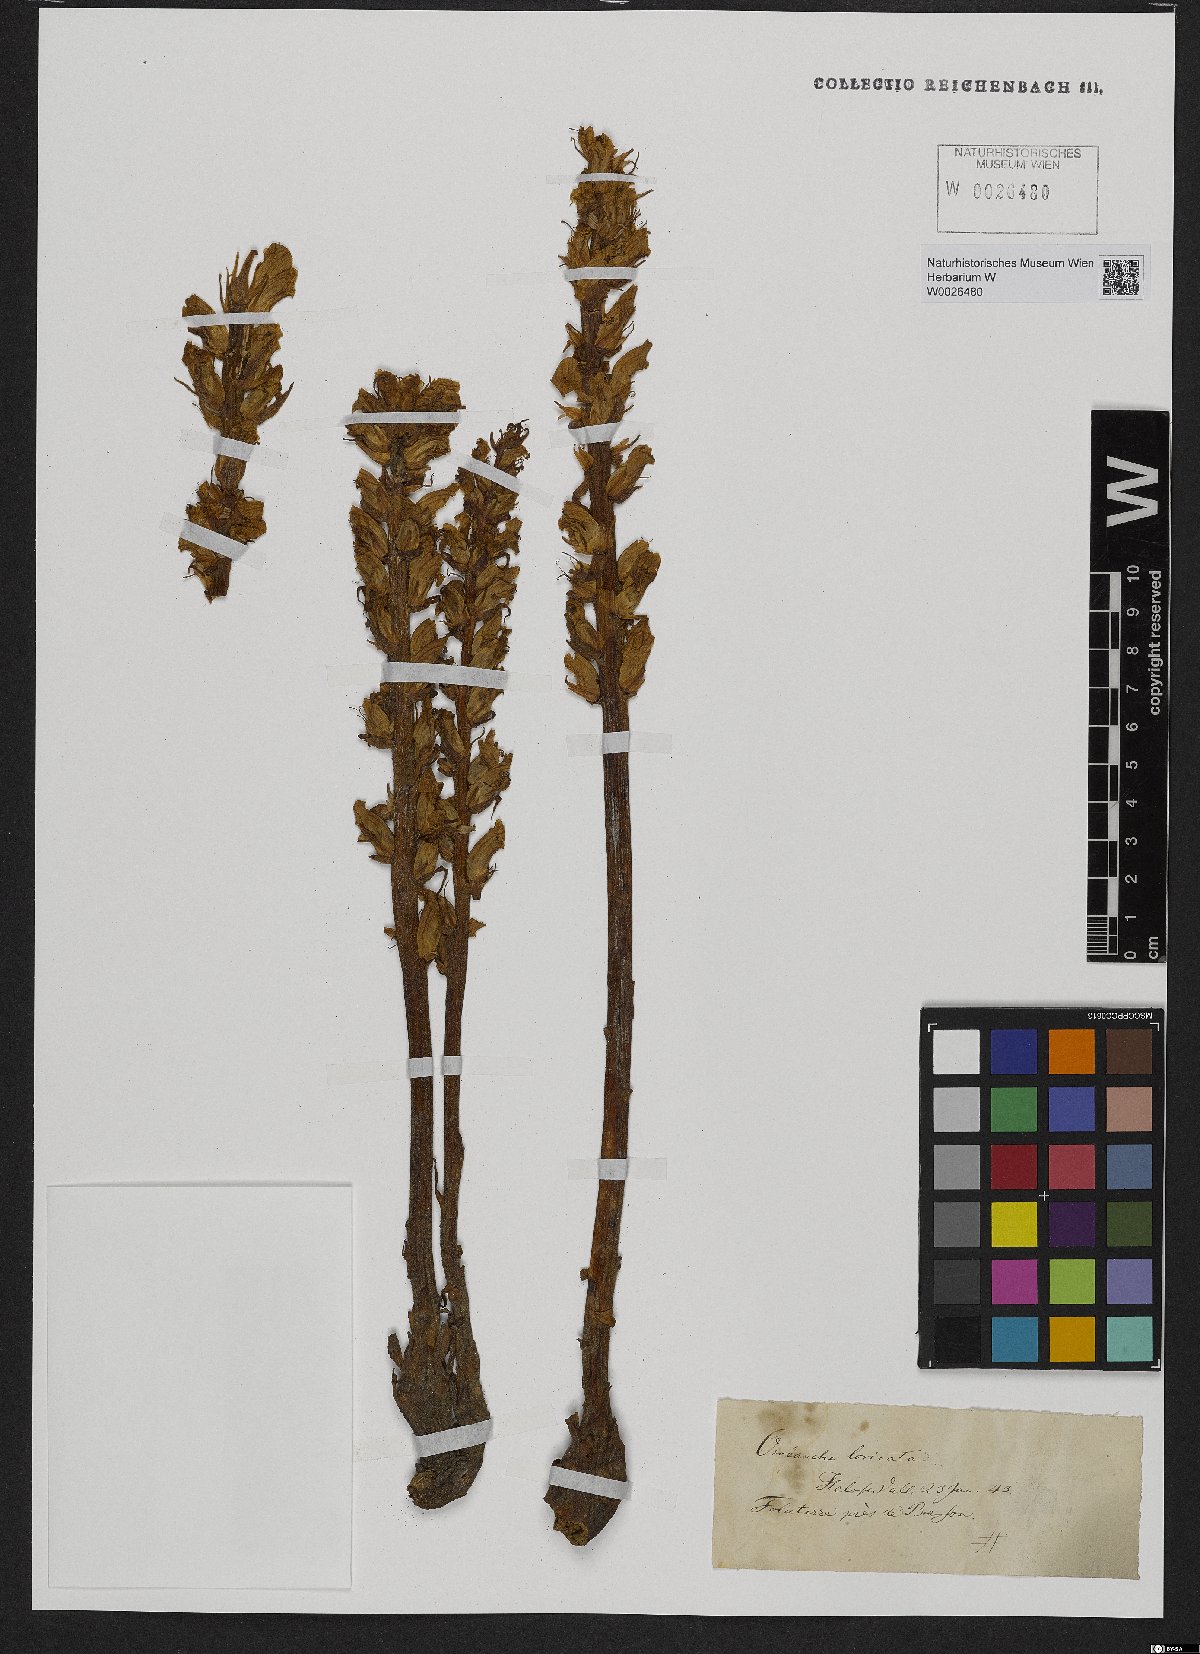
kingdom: Plantae
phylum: Tracheophyta
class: Magnoliopsida
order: Lamiales
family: Orobanchaceae
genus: Orobanche
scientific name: Orobanche artemisiae-campestris
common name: Oxtongue broomrape
